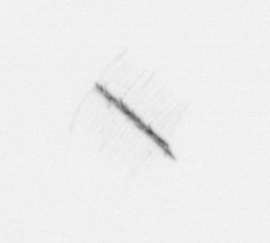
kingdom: Chromista
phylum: Ochrophyta
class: Bacillariophyceae
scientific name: Bacillariophyceae
